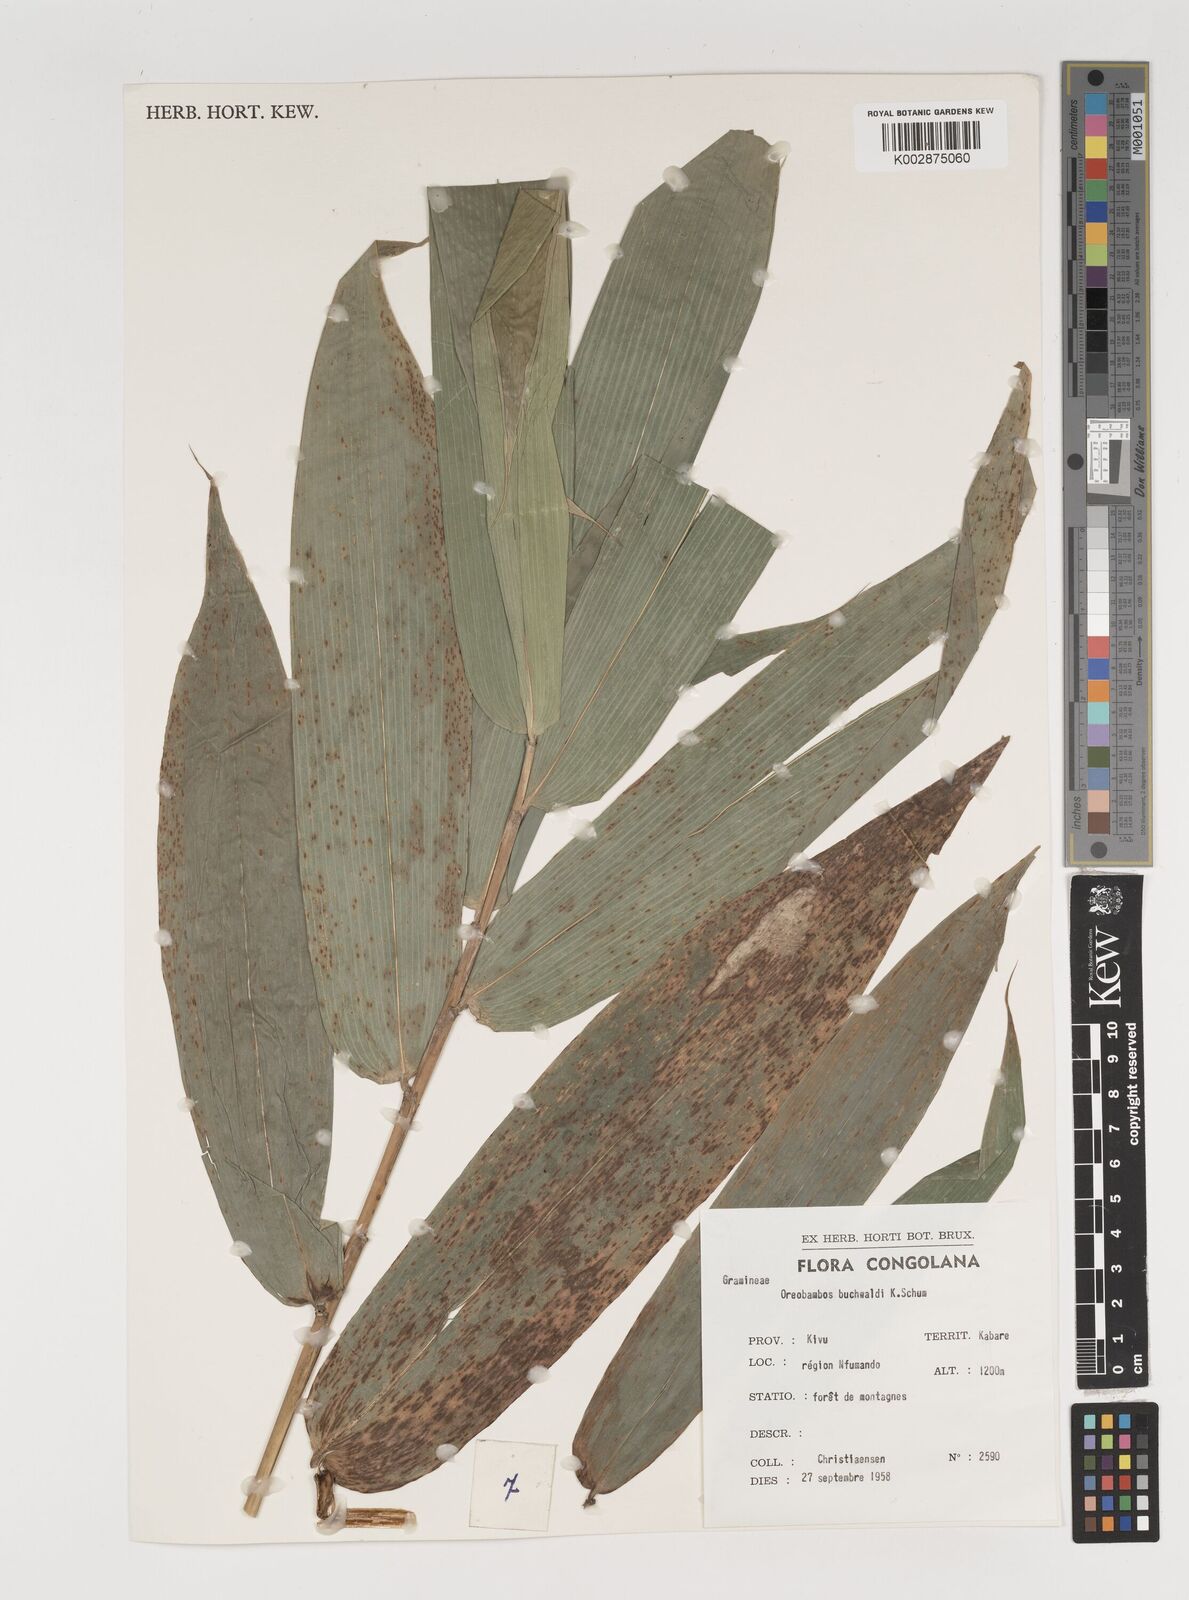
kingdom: Plantae
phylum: Tracheophyta
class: Liliopsida
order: Poales
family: Poaceae
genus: Oreobambos
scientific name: Oreobambos buchwaldii
